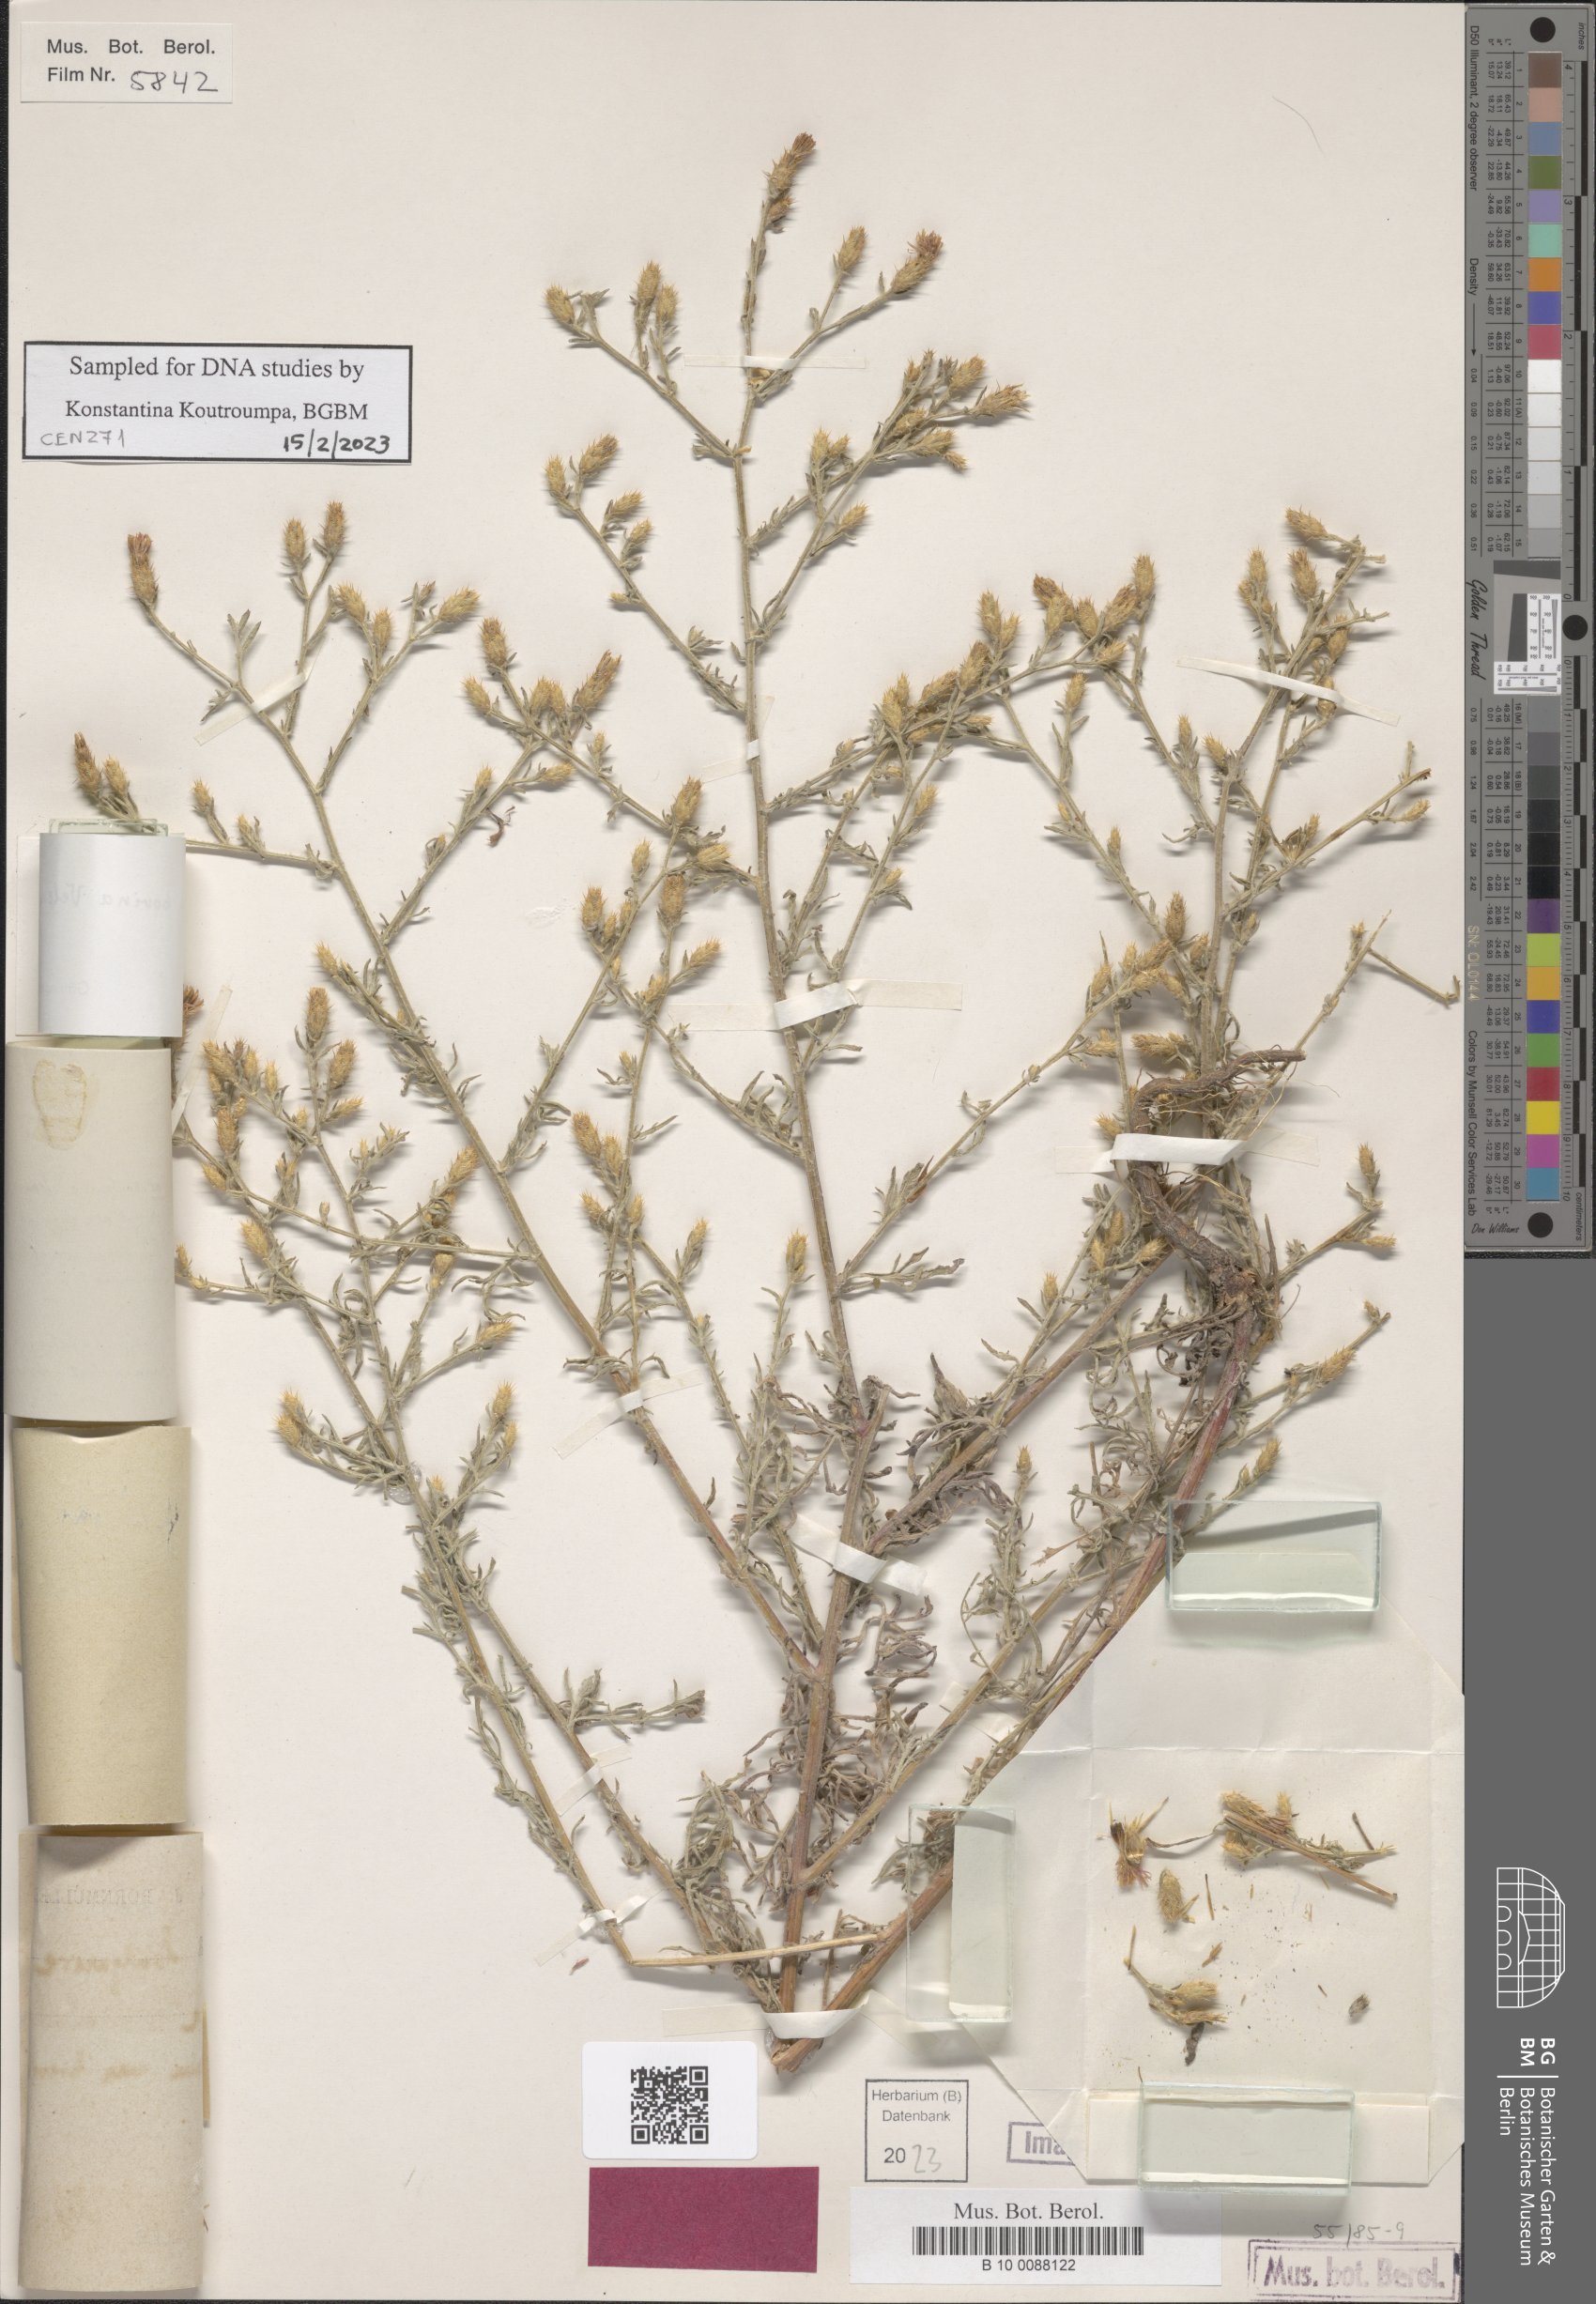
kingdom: Plantae
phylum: Tracheophyta
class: Magnoliopsida
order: Asterales
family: Asteraceae
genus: Centaurea
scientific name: Centaurea bovina
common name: Pasture knapweed
